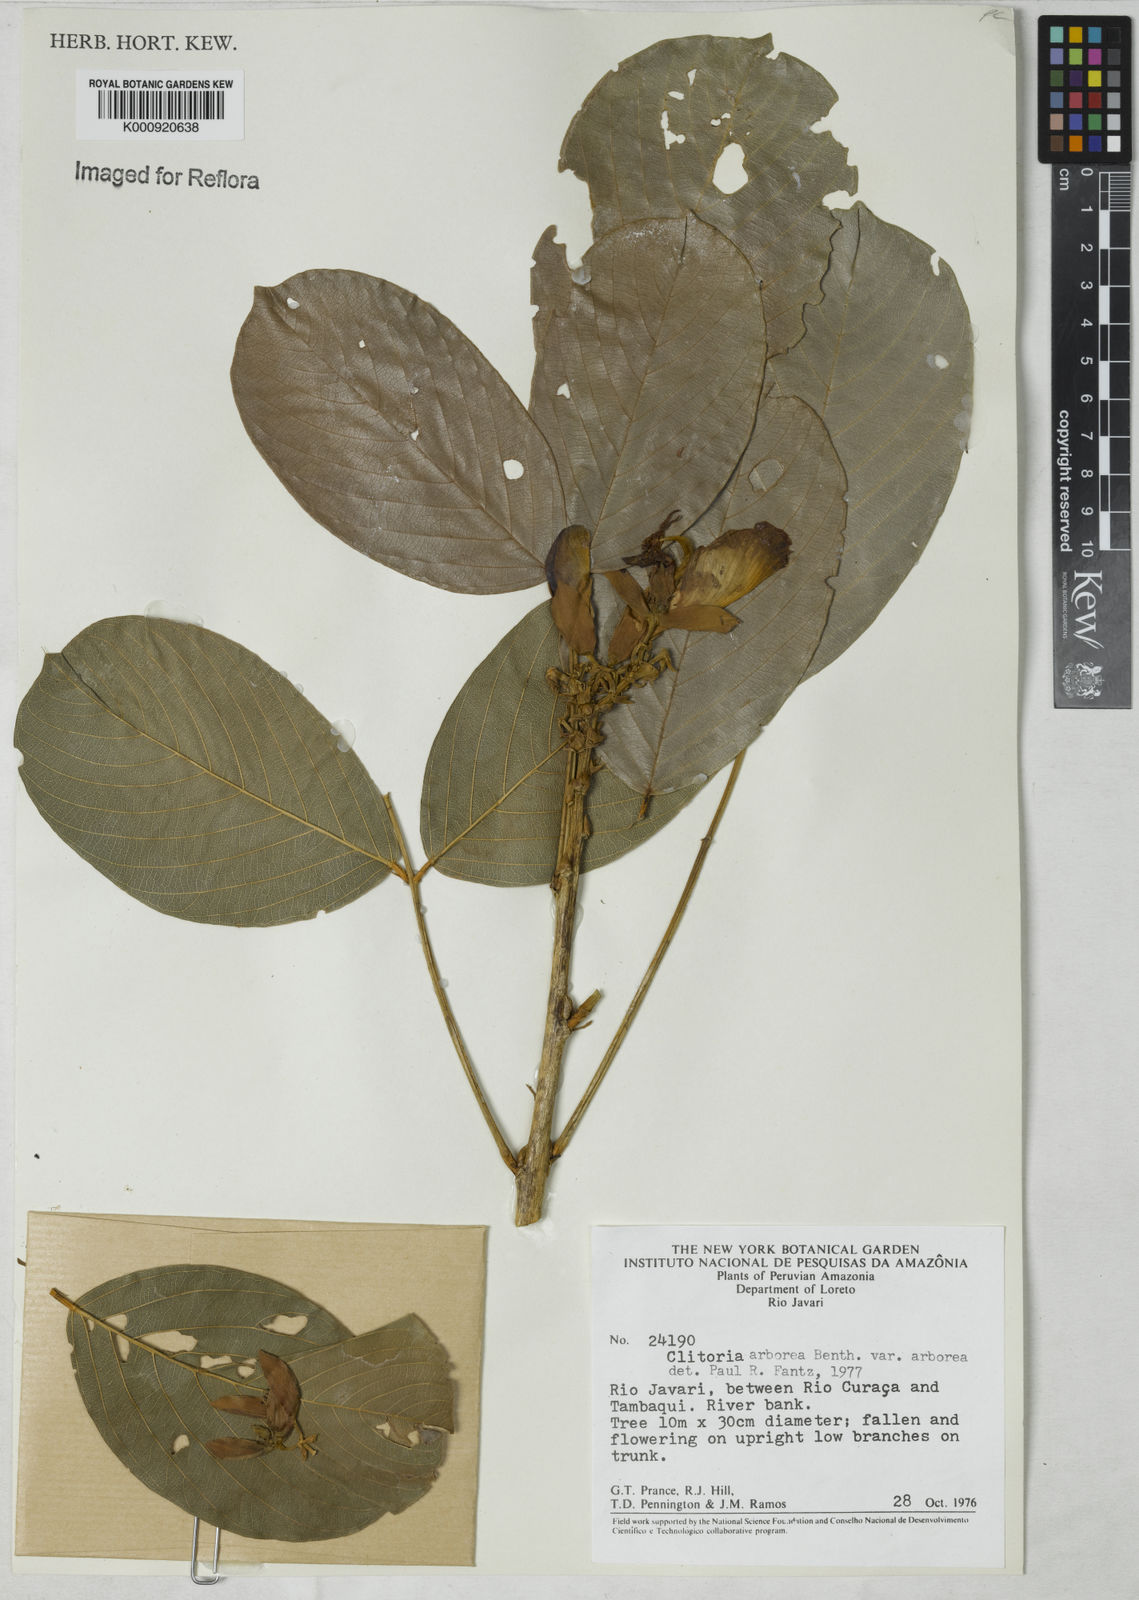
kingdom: Plantae
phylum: Tracheophyta
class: Magnoliopsida
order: Fabales
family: Fabaceae
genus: Clitoria
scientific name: Clitoria arborea
